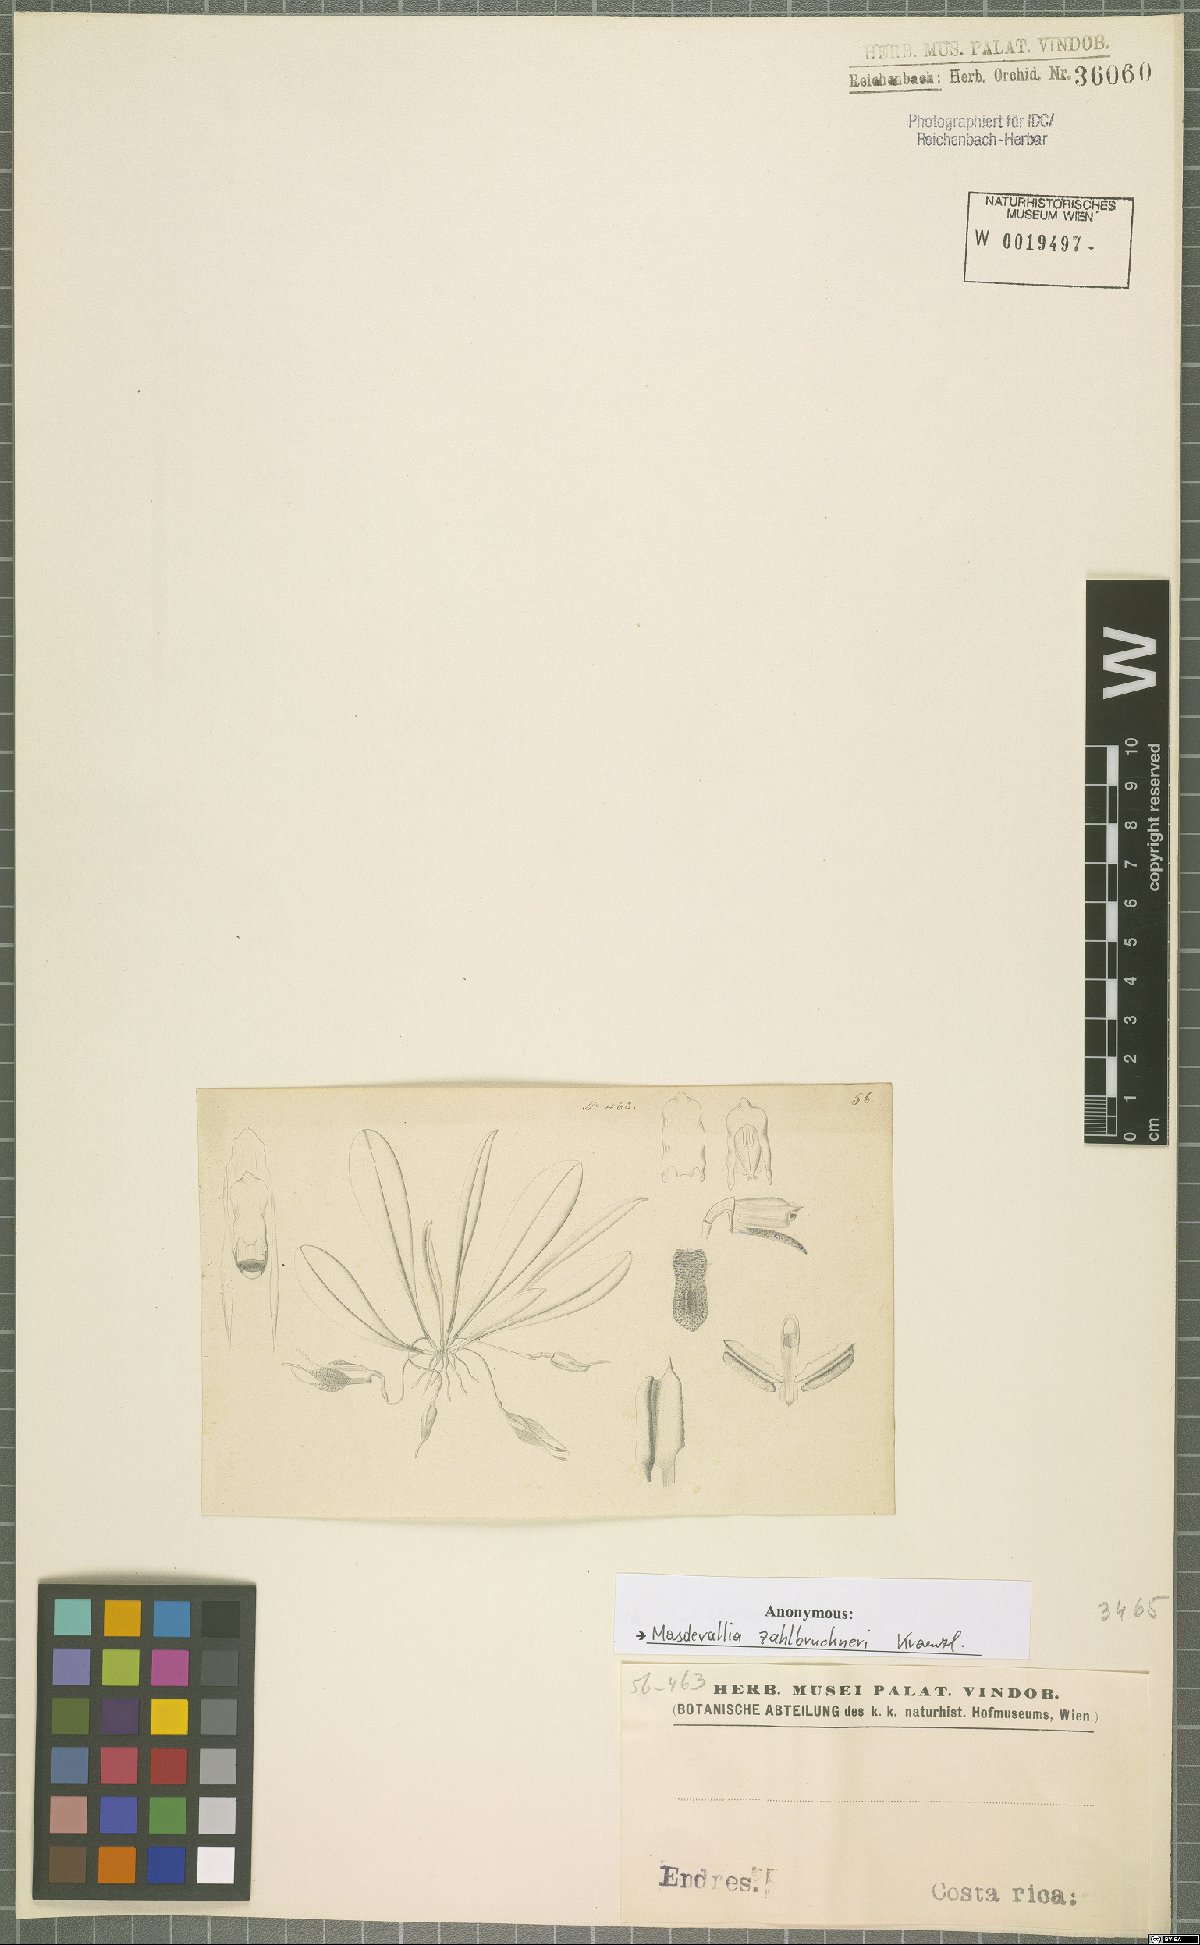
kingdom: Plantae
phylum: Tracheophyta
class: Liliopsida
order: Asparagales
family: Orchidaceae
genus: Masdevallia
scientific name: Masdevallia zahlbruckneri
